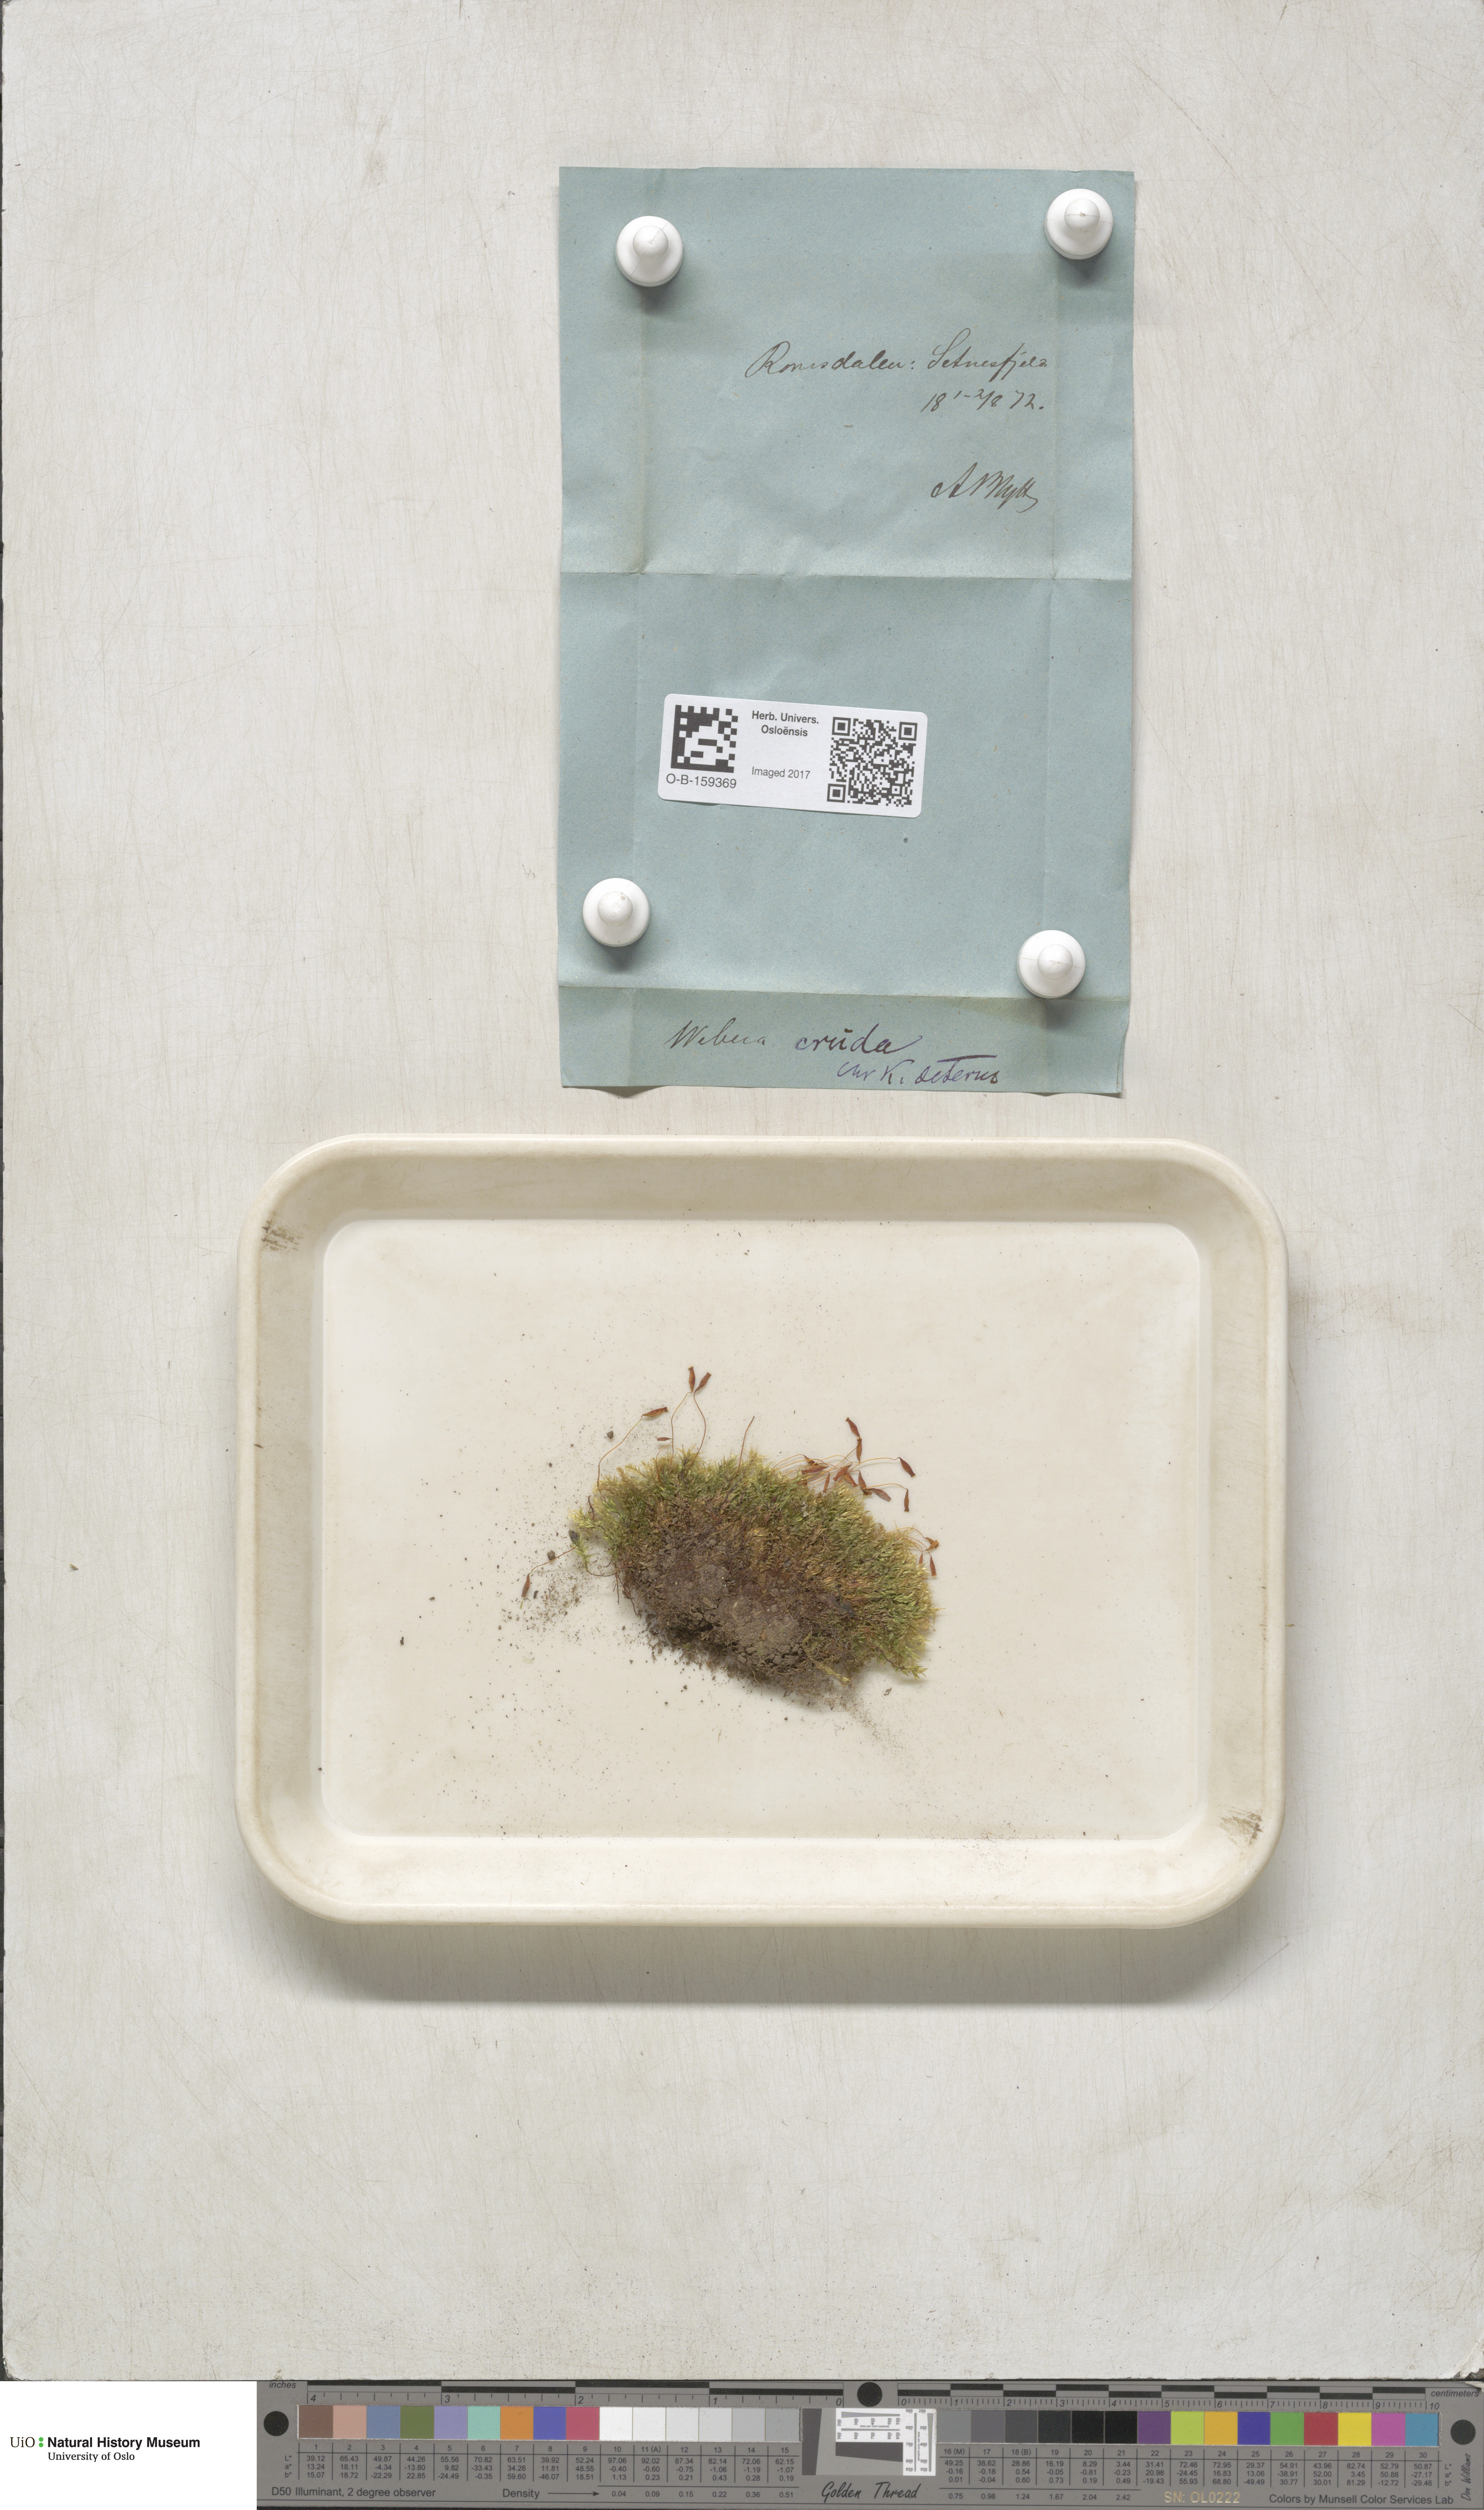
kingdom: Plantae
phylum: Bryophyta
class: Bryopsida
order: Bryales
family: Mniaceae
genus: Pohlia
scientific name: Pohlia cruda
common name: Opal nodding moss
